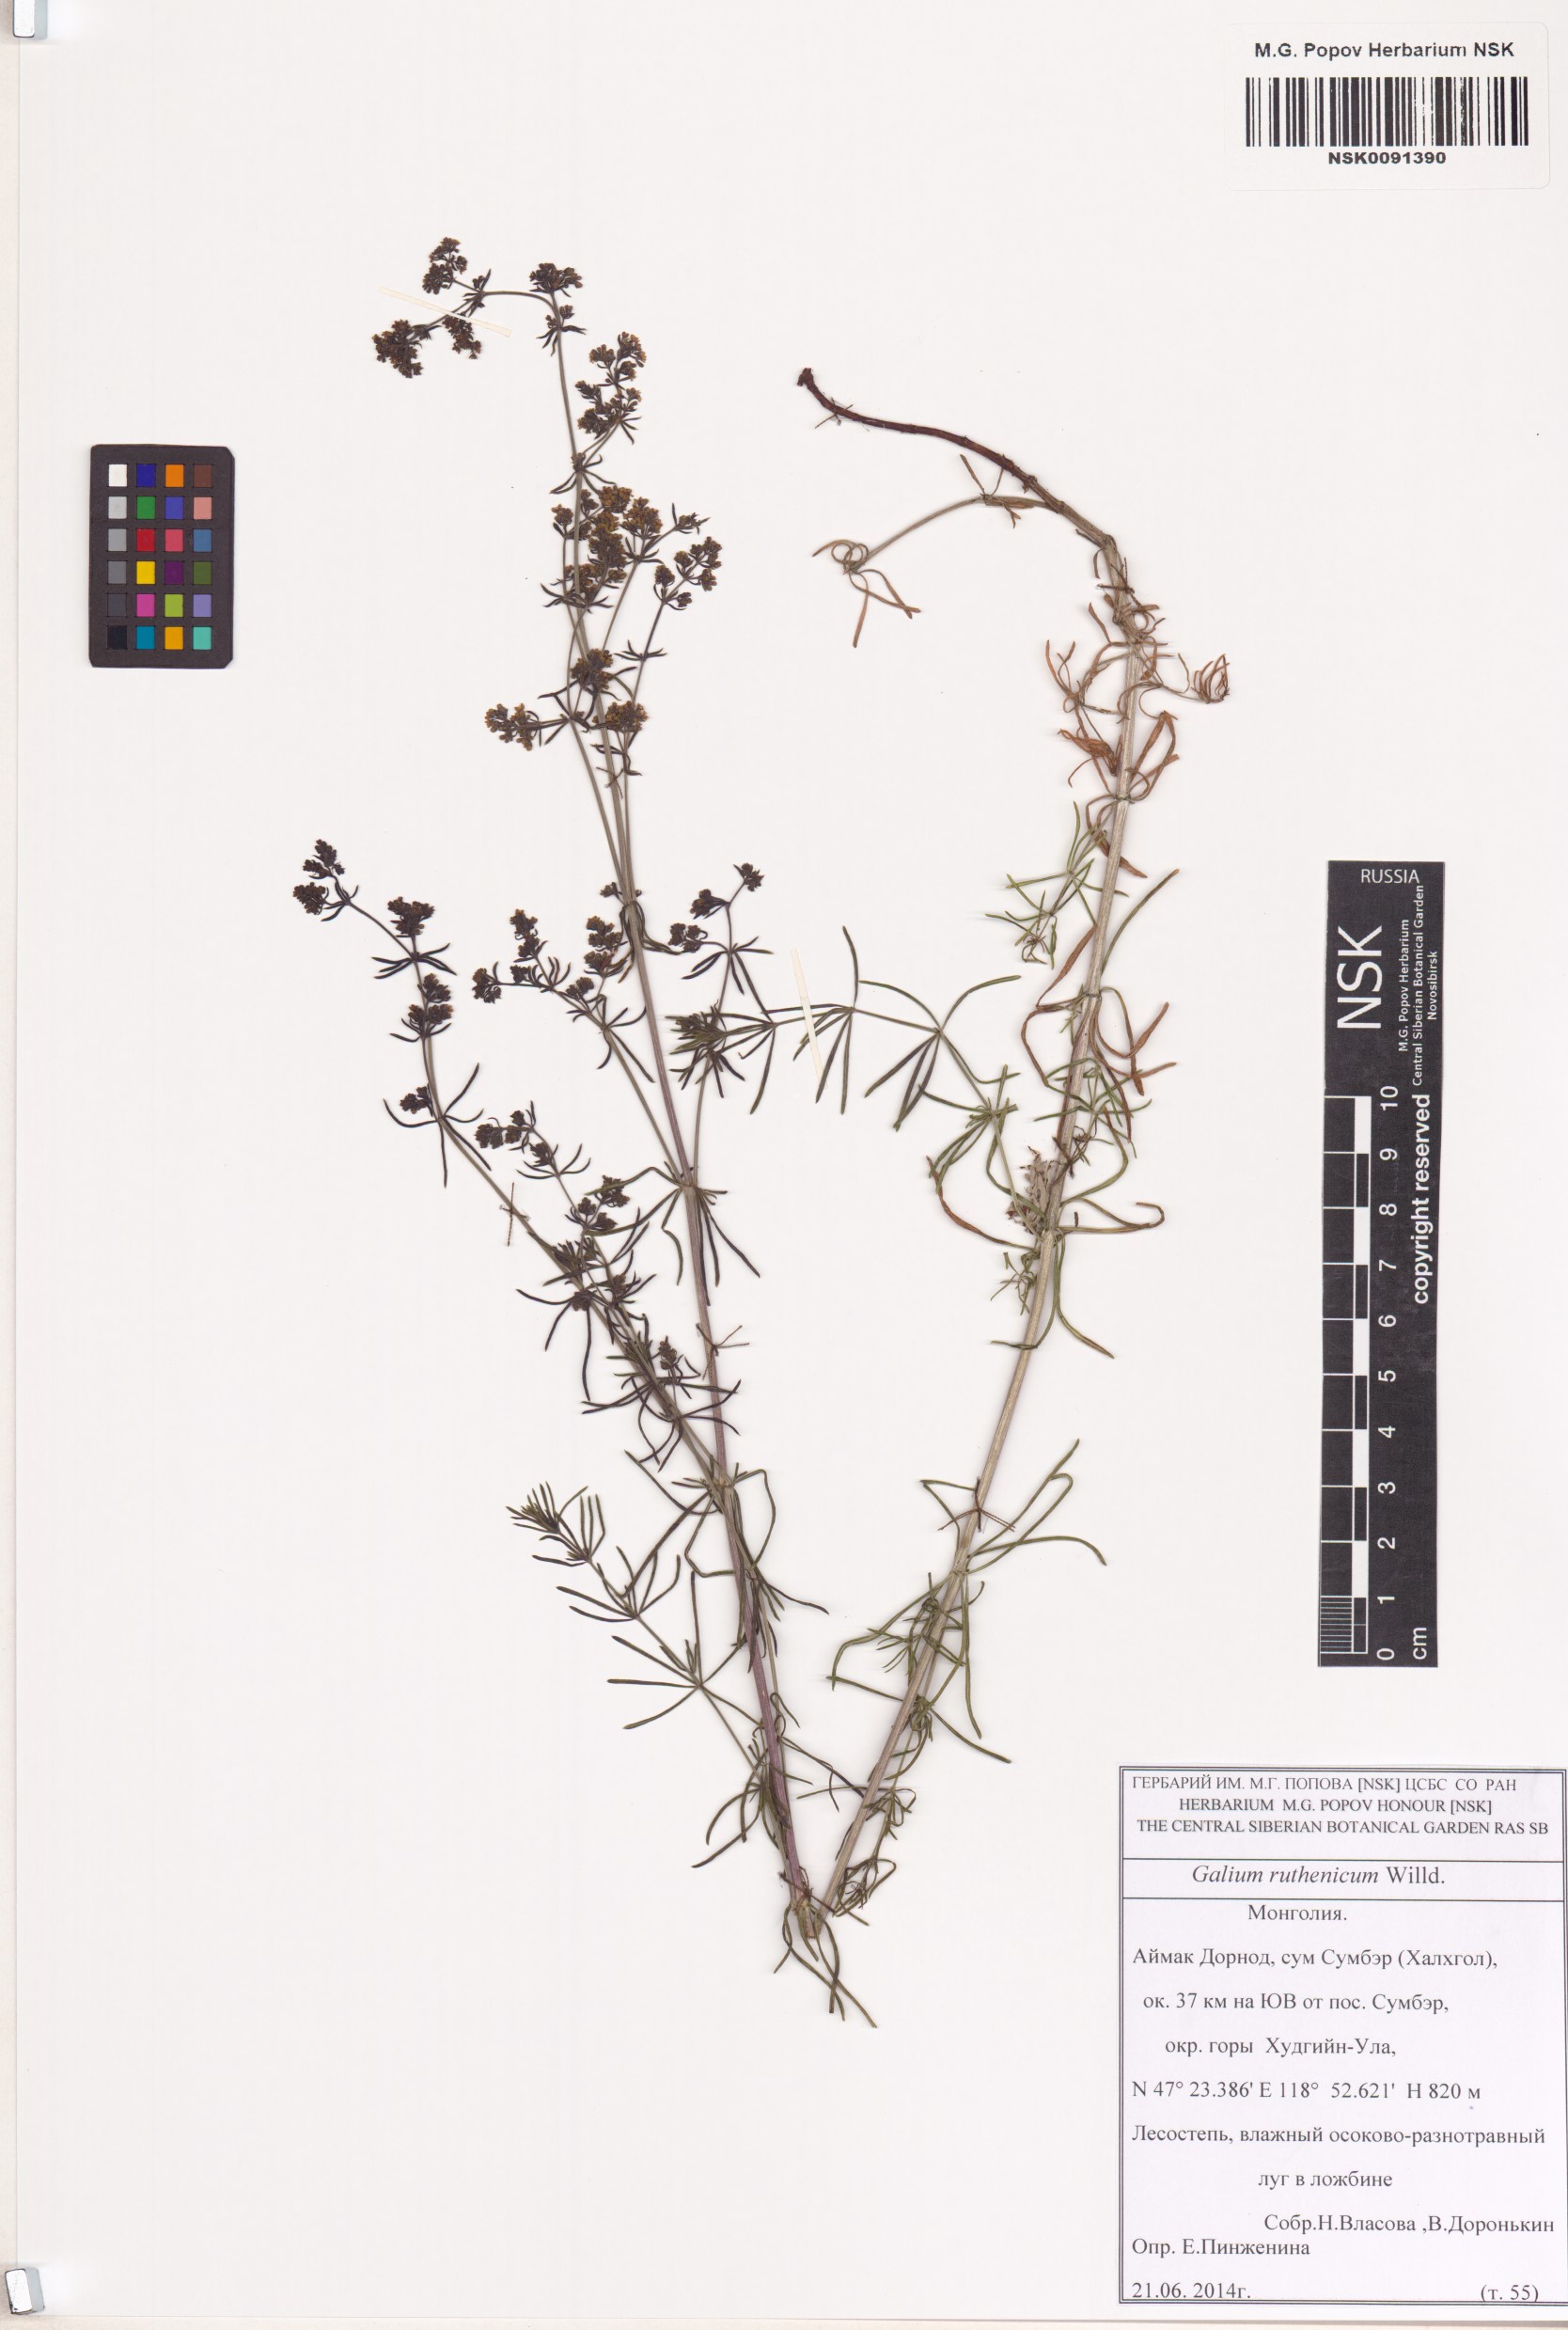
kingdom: Plantae
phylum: Tracheophyta
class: Magnoliopsida
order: Gentianales
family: Rubiaceae
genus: Galium
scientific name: Galium verum
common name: Lady's bedstraw
